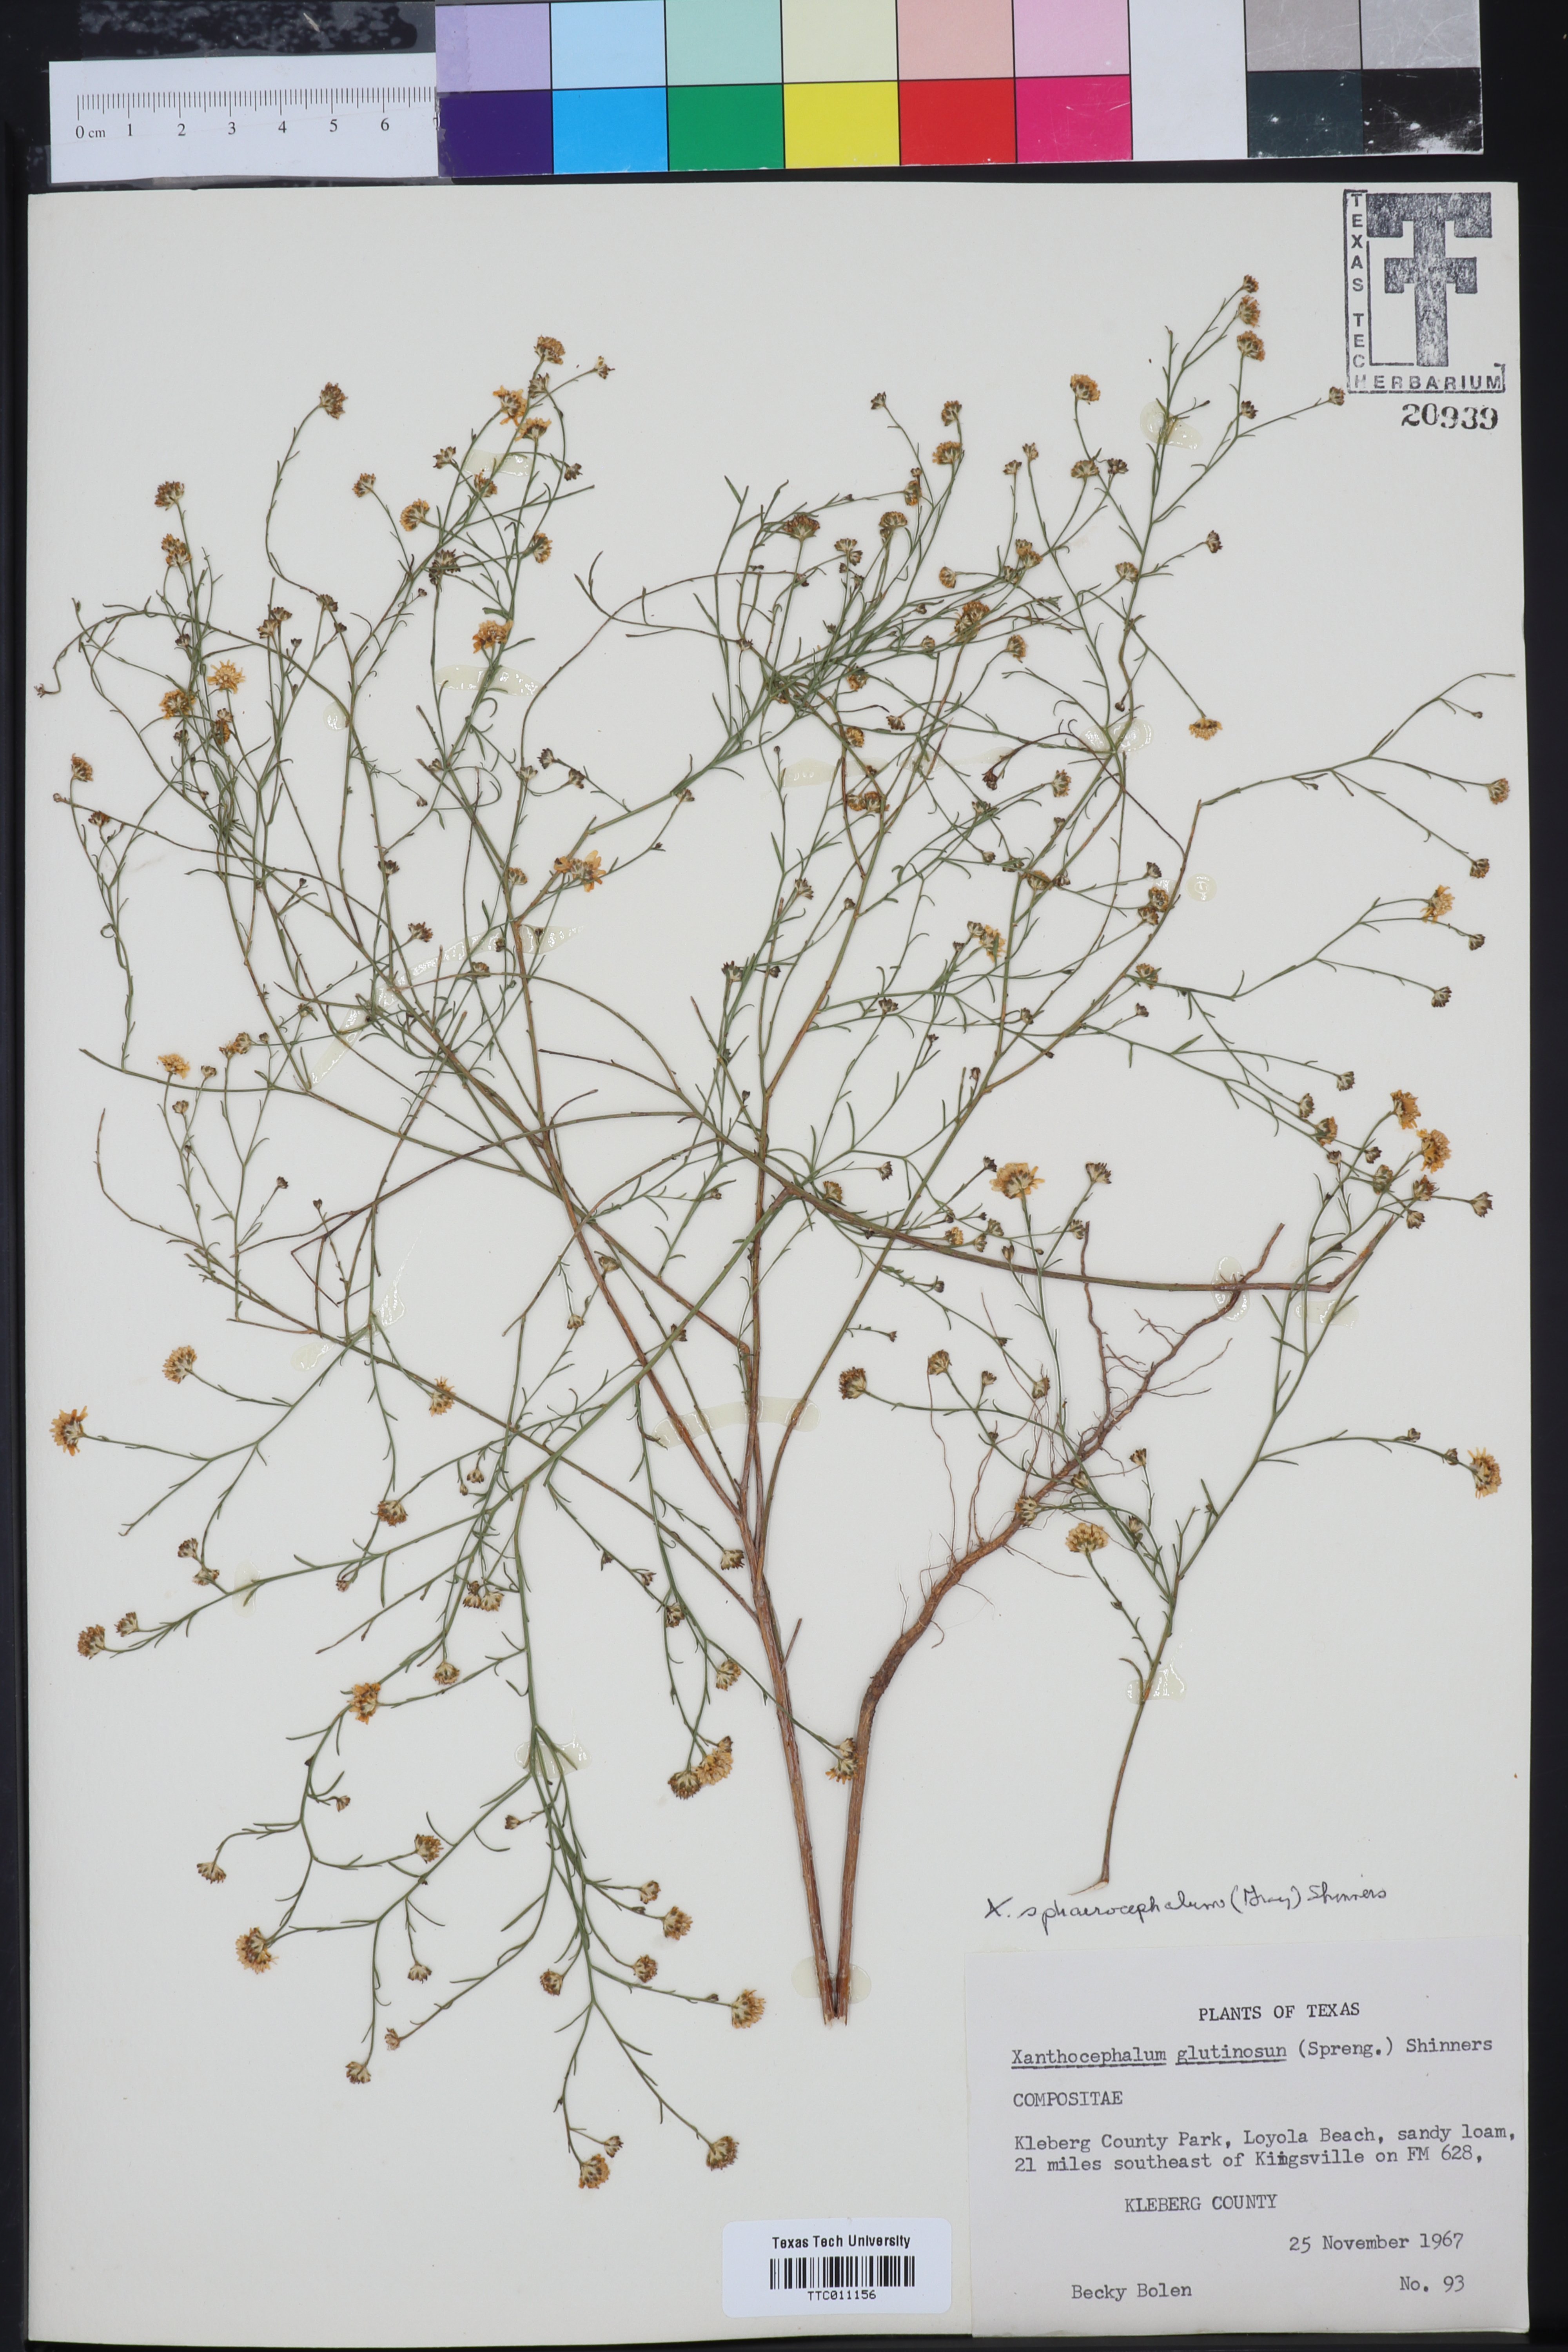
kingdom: Plantae
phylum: Tracheophyta
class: Magnoliopsida
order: Asterales
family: Asteraceae
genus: Gutierrezia
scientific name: Gutierrezia sphaerocephala
